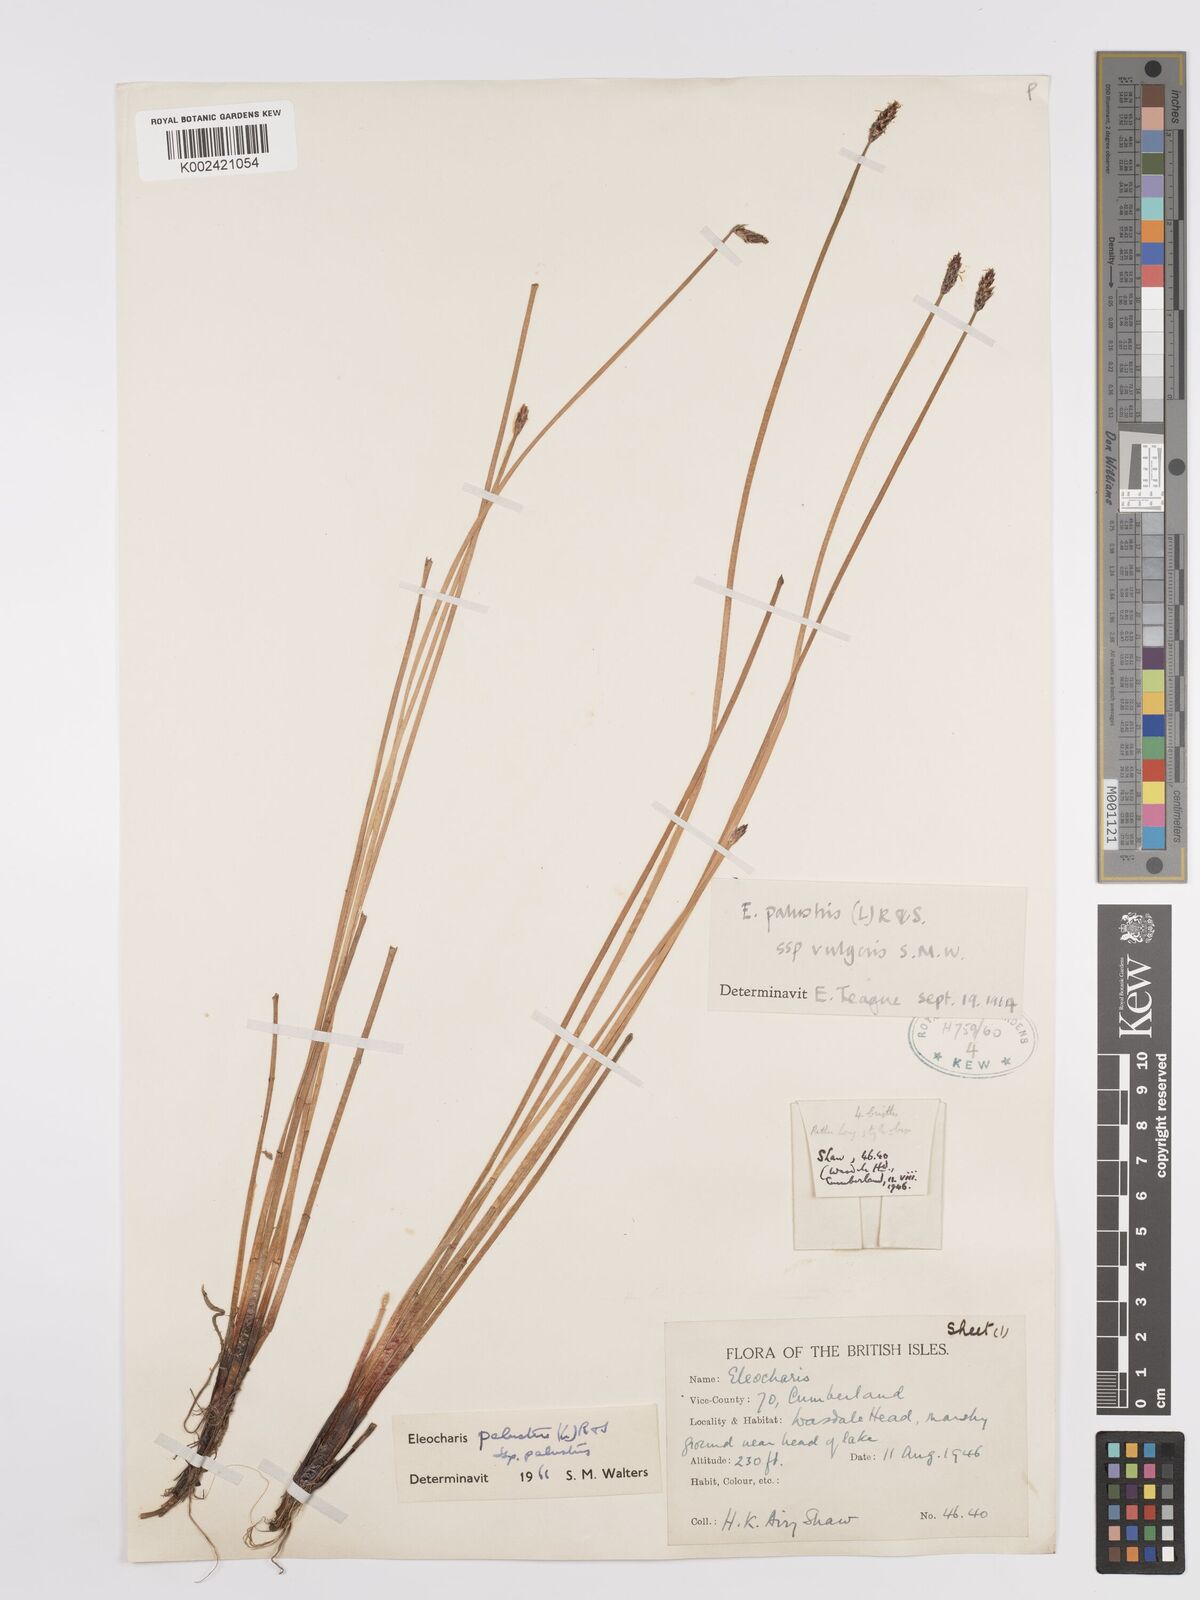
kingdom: Plantae
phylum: Tracheophyta
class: Liliopsida
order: Poales
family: Cyperaceae
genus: Eleocharis
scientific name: Eleocharis palustris
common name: Common spike-rush
